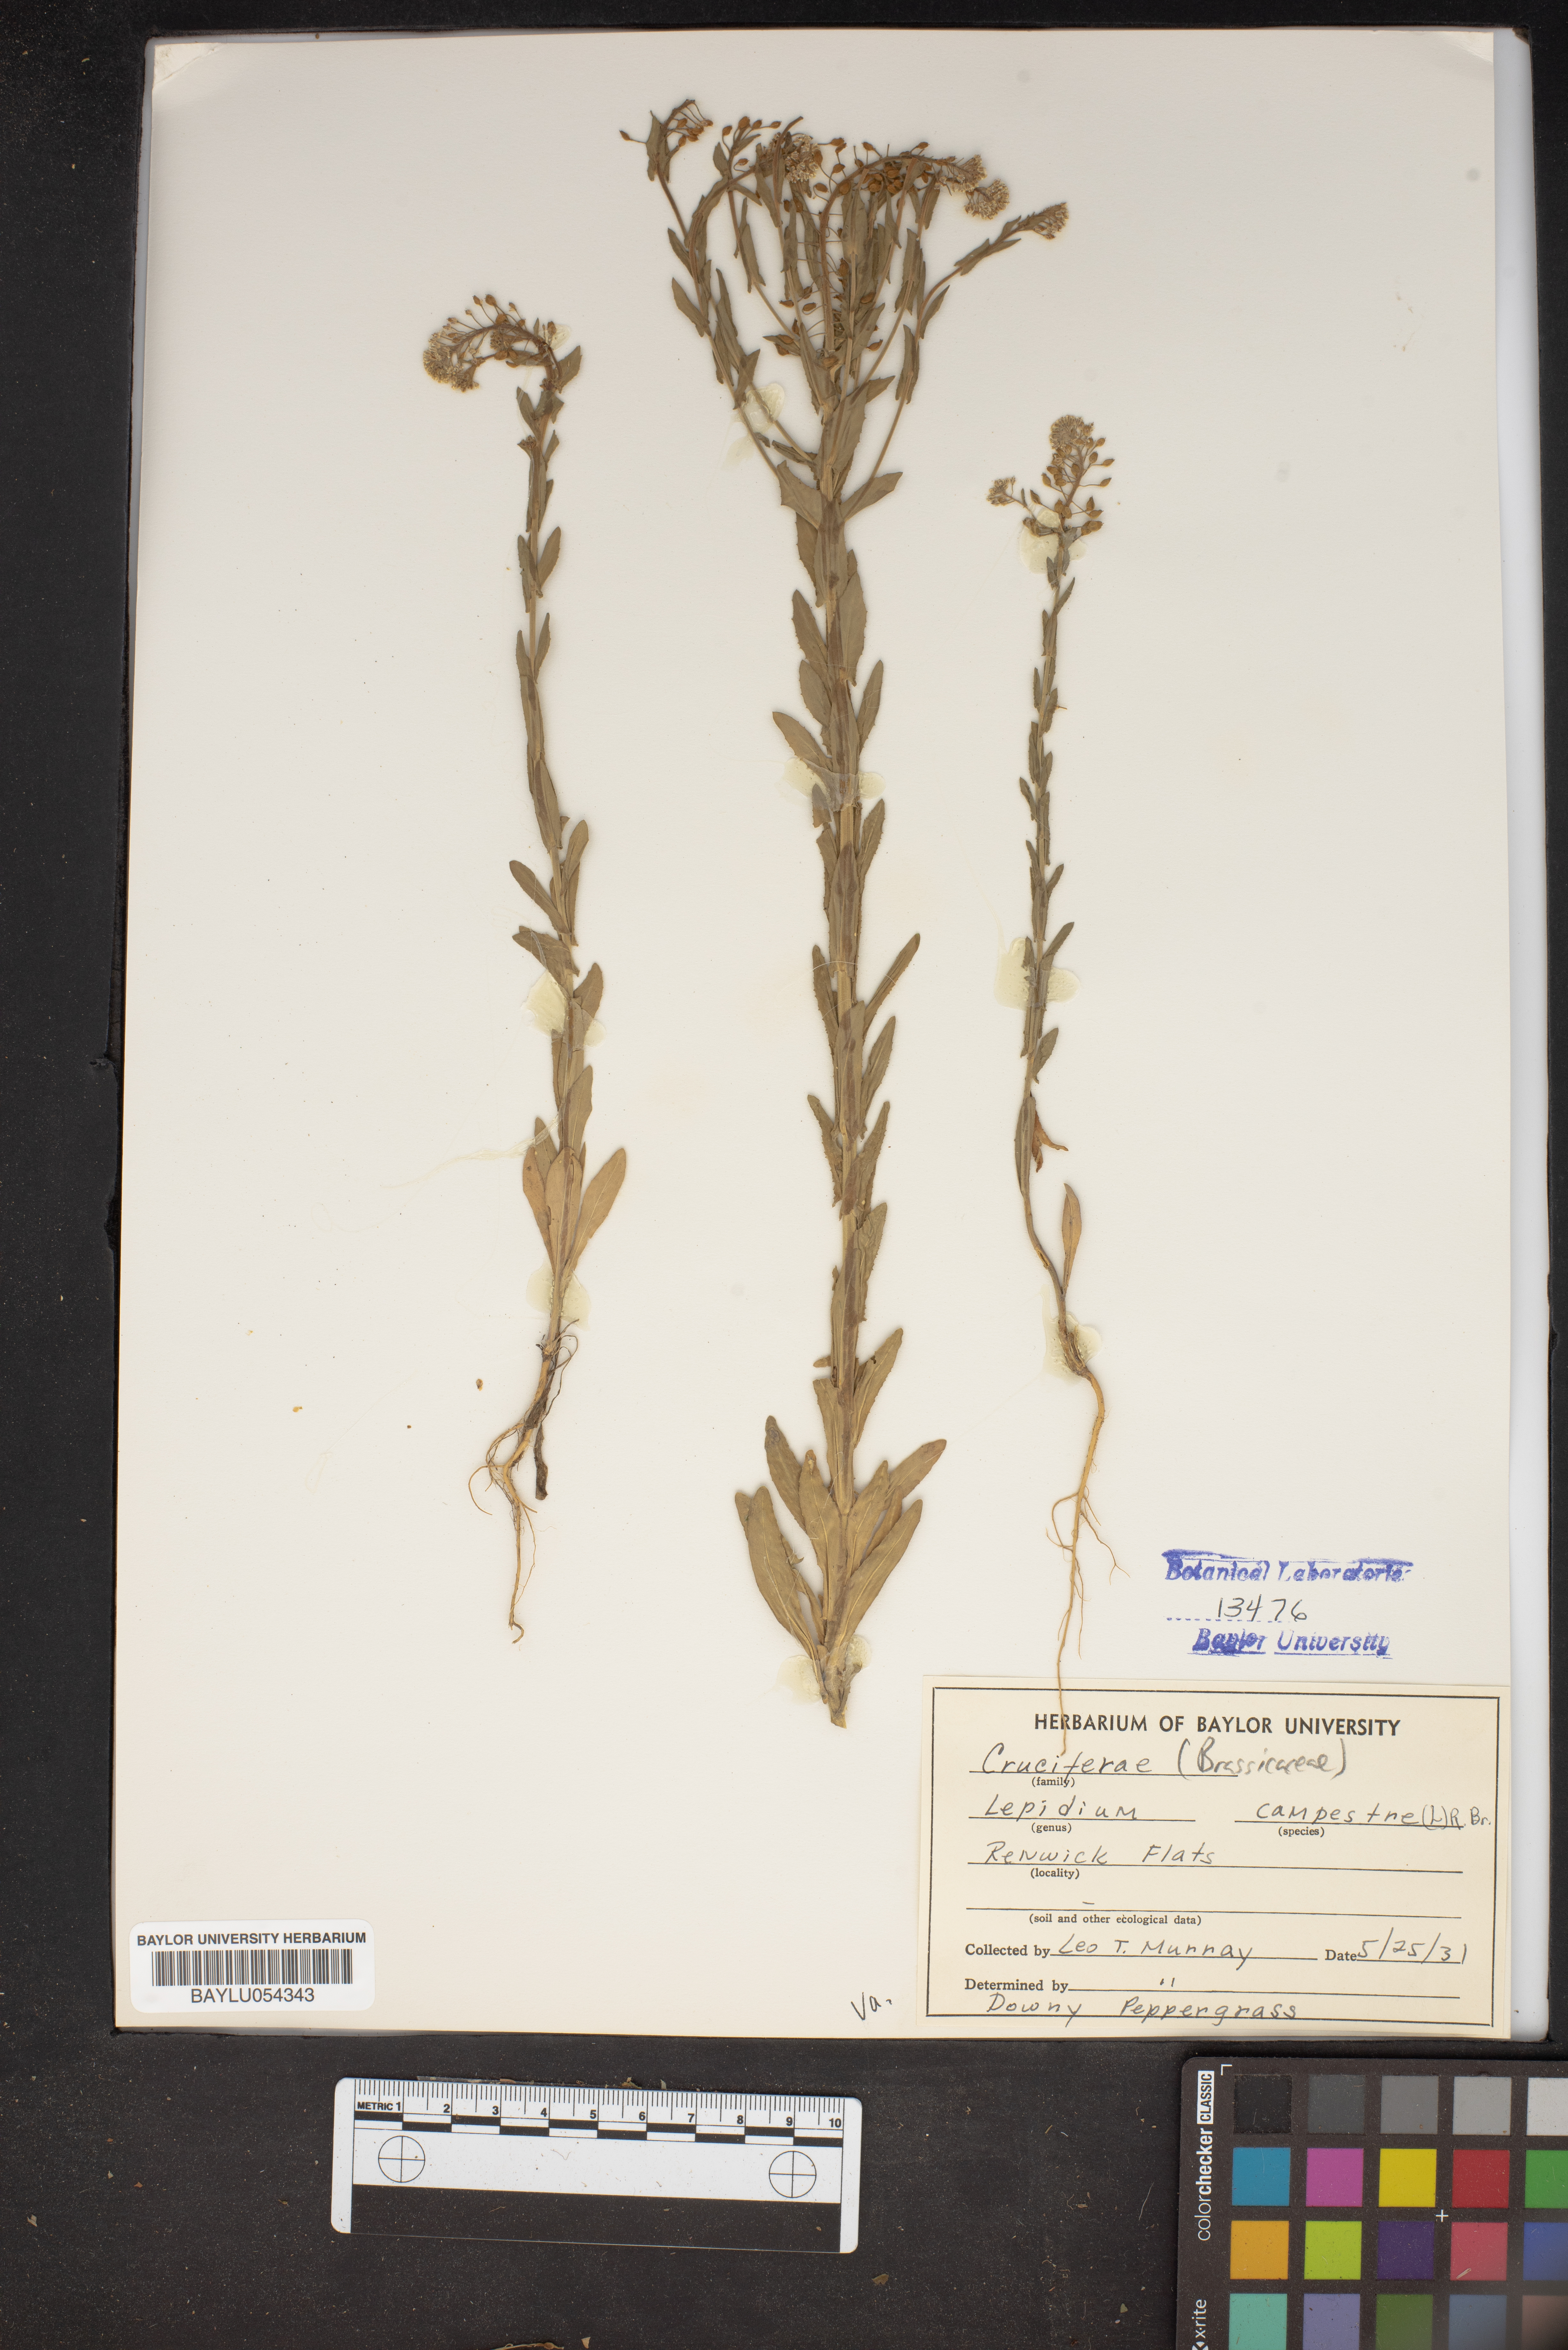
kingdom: Plantae
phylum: Tracheophyta
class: Magnoliopsida
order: Brassicales
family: Brassicaceae
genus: Lepidium
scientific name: Lepidium campestre
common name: Field pepperwort
